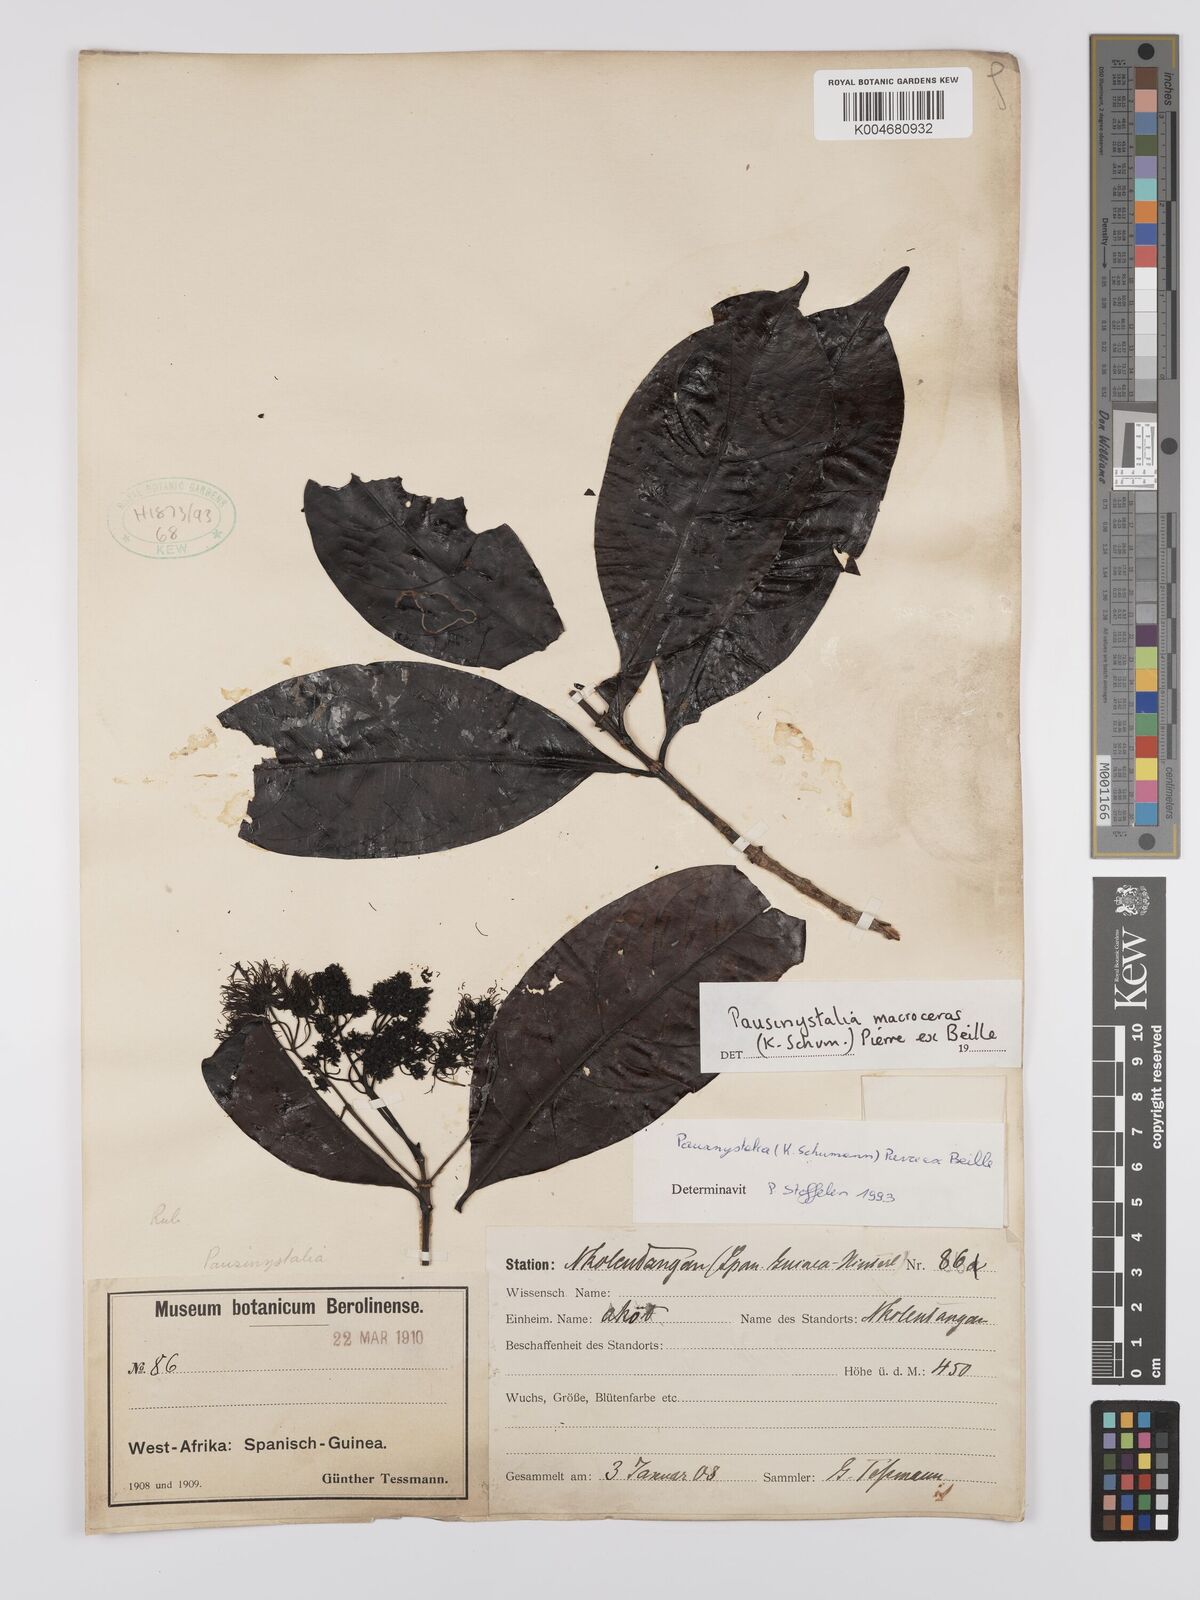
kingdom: Plantae
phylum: Tracheophyta
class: Magnoliopsida
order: Gentianales
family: Rubiaceae
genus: Corynanthe
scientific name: Corynanthe macroceras
